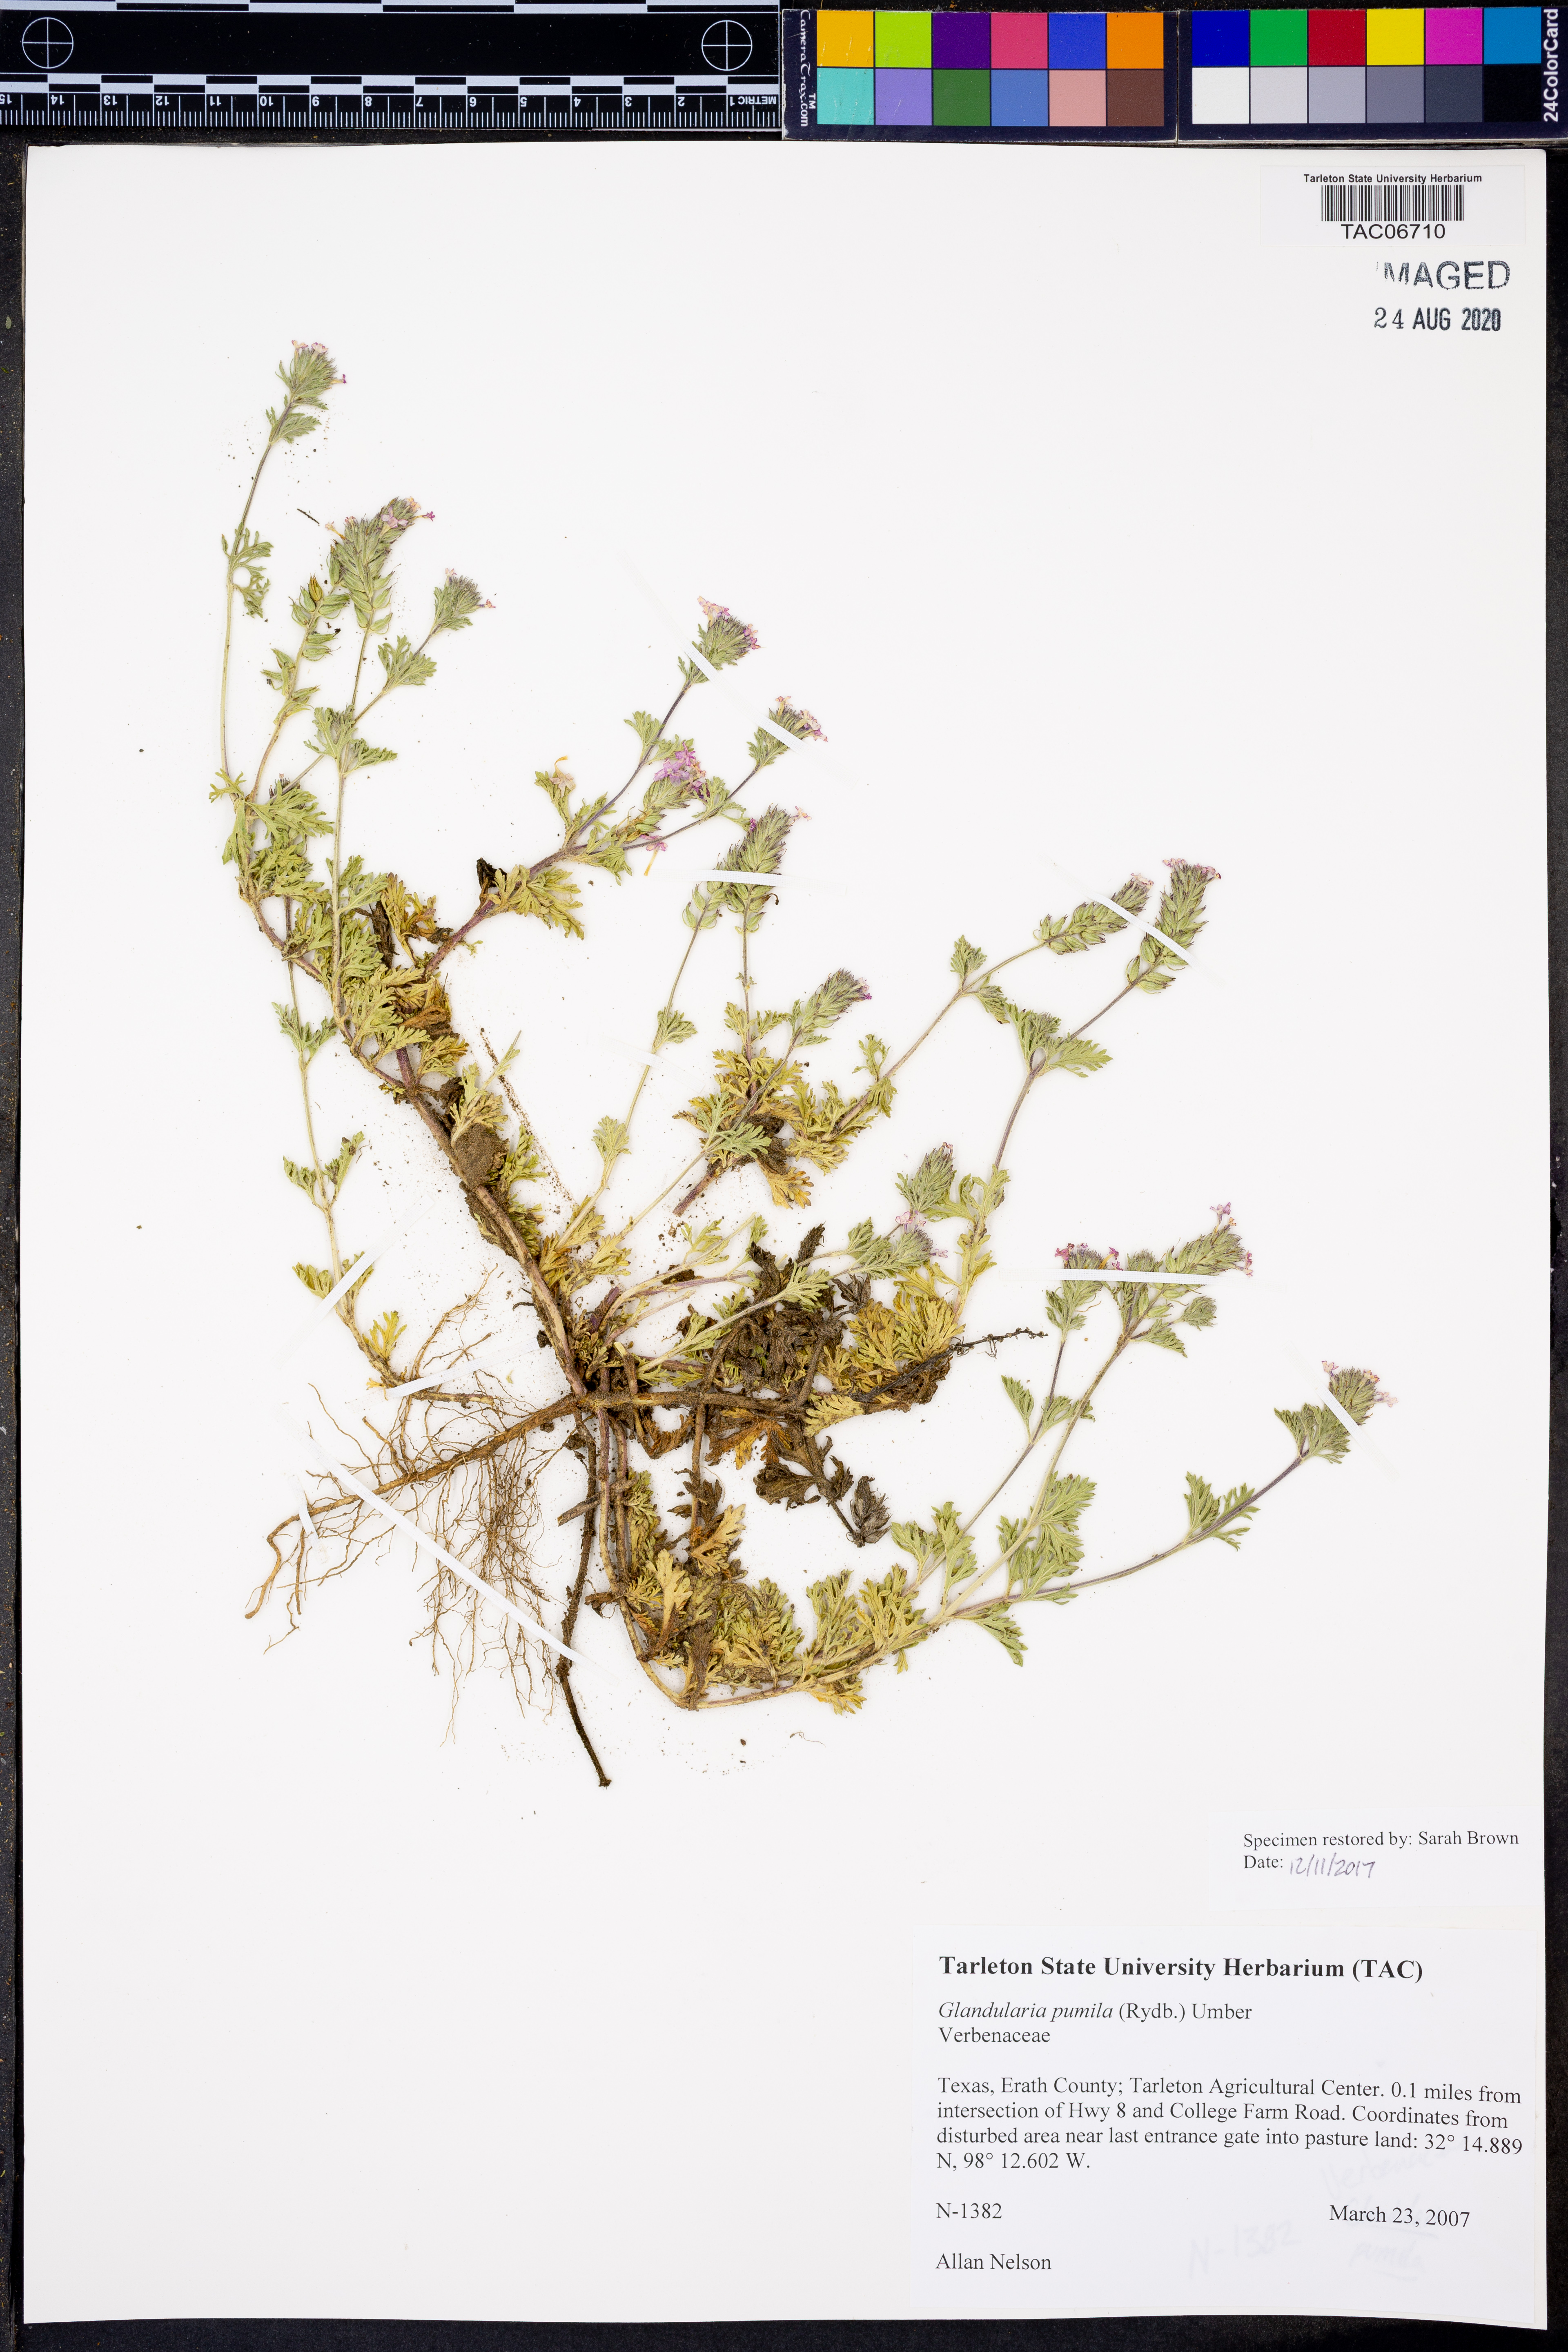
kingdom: Plantae
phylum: Tracheophyta
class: Magnoliopsida
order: Lamiales
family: Verbenaceae
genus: Verbena
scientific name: Verbena pumila
